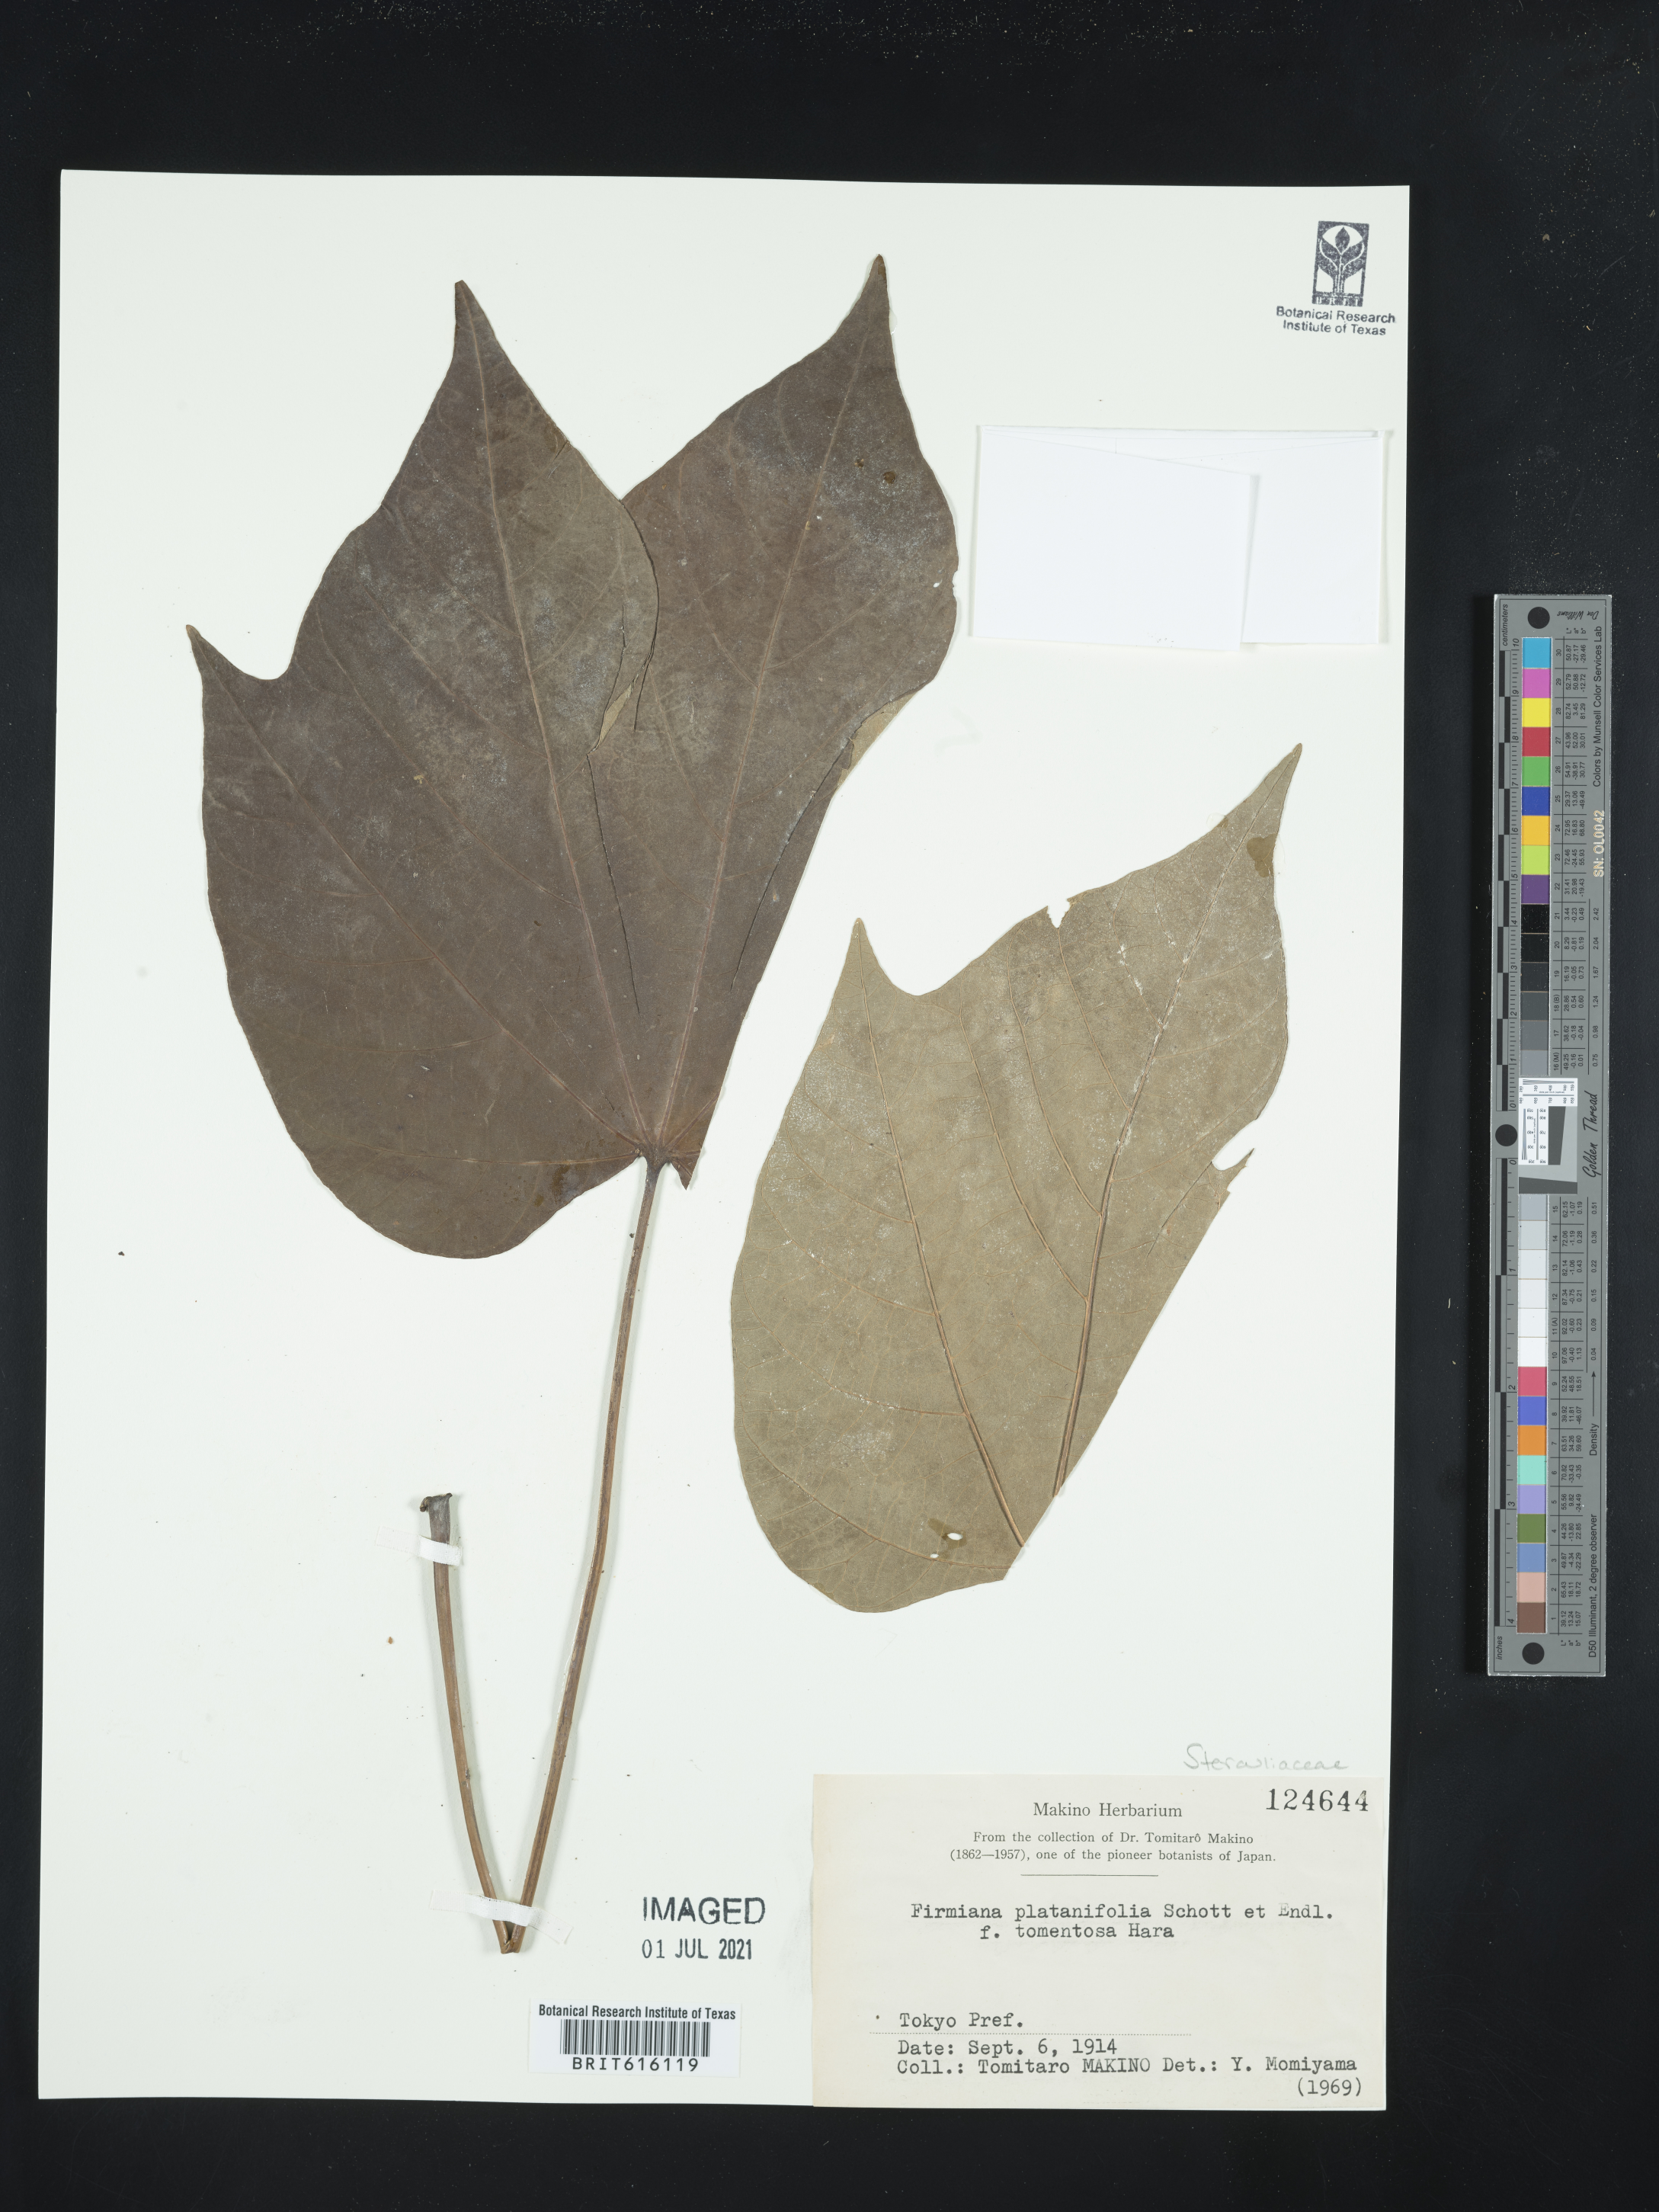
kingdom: Plantae
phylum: Tracheophyta
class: Magnoliopsida
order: Malvales
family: Malvaceae
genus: Firmiana
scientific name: Firmiana simplex
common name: Chinese parasoltree
